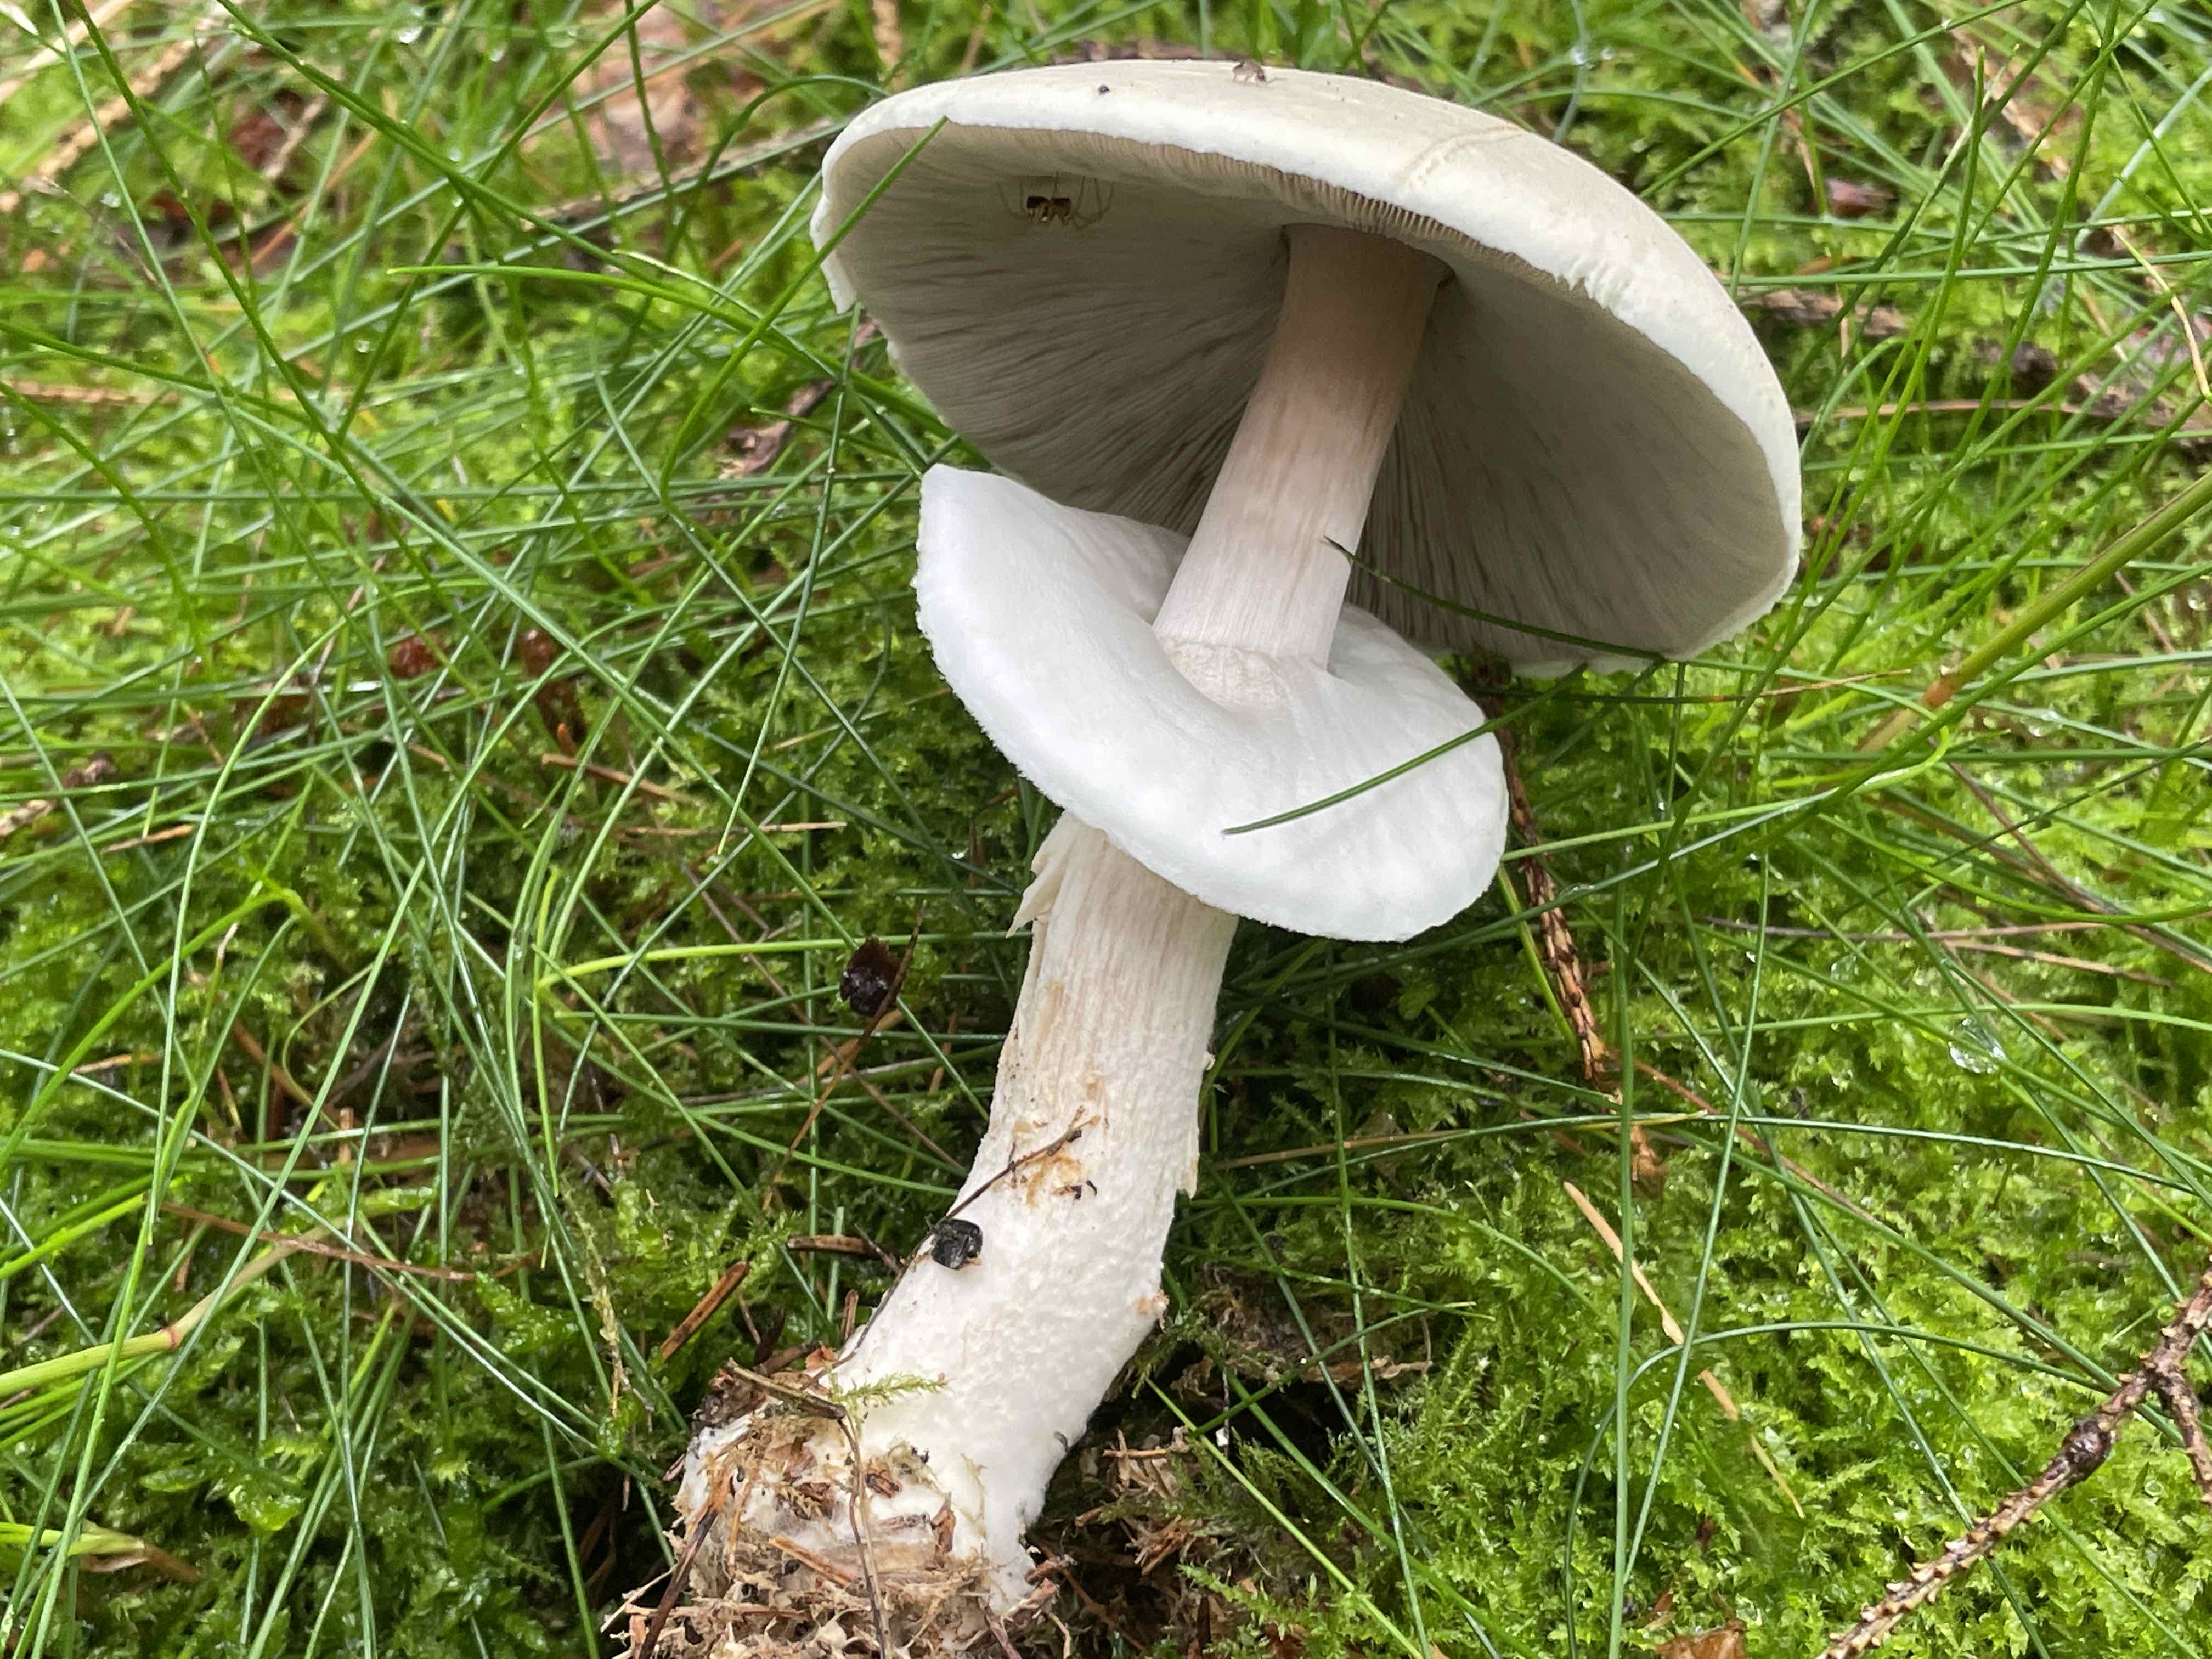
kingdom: Fungi
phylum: Basidiomycota
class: Agaricomycetes
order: Agaricales
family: Agaricaceae
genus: Agaricus
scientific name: Agaricus
